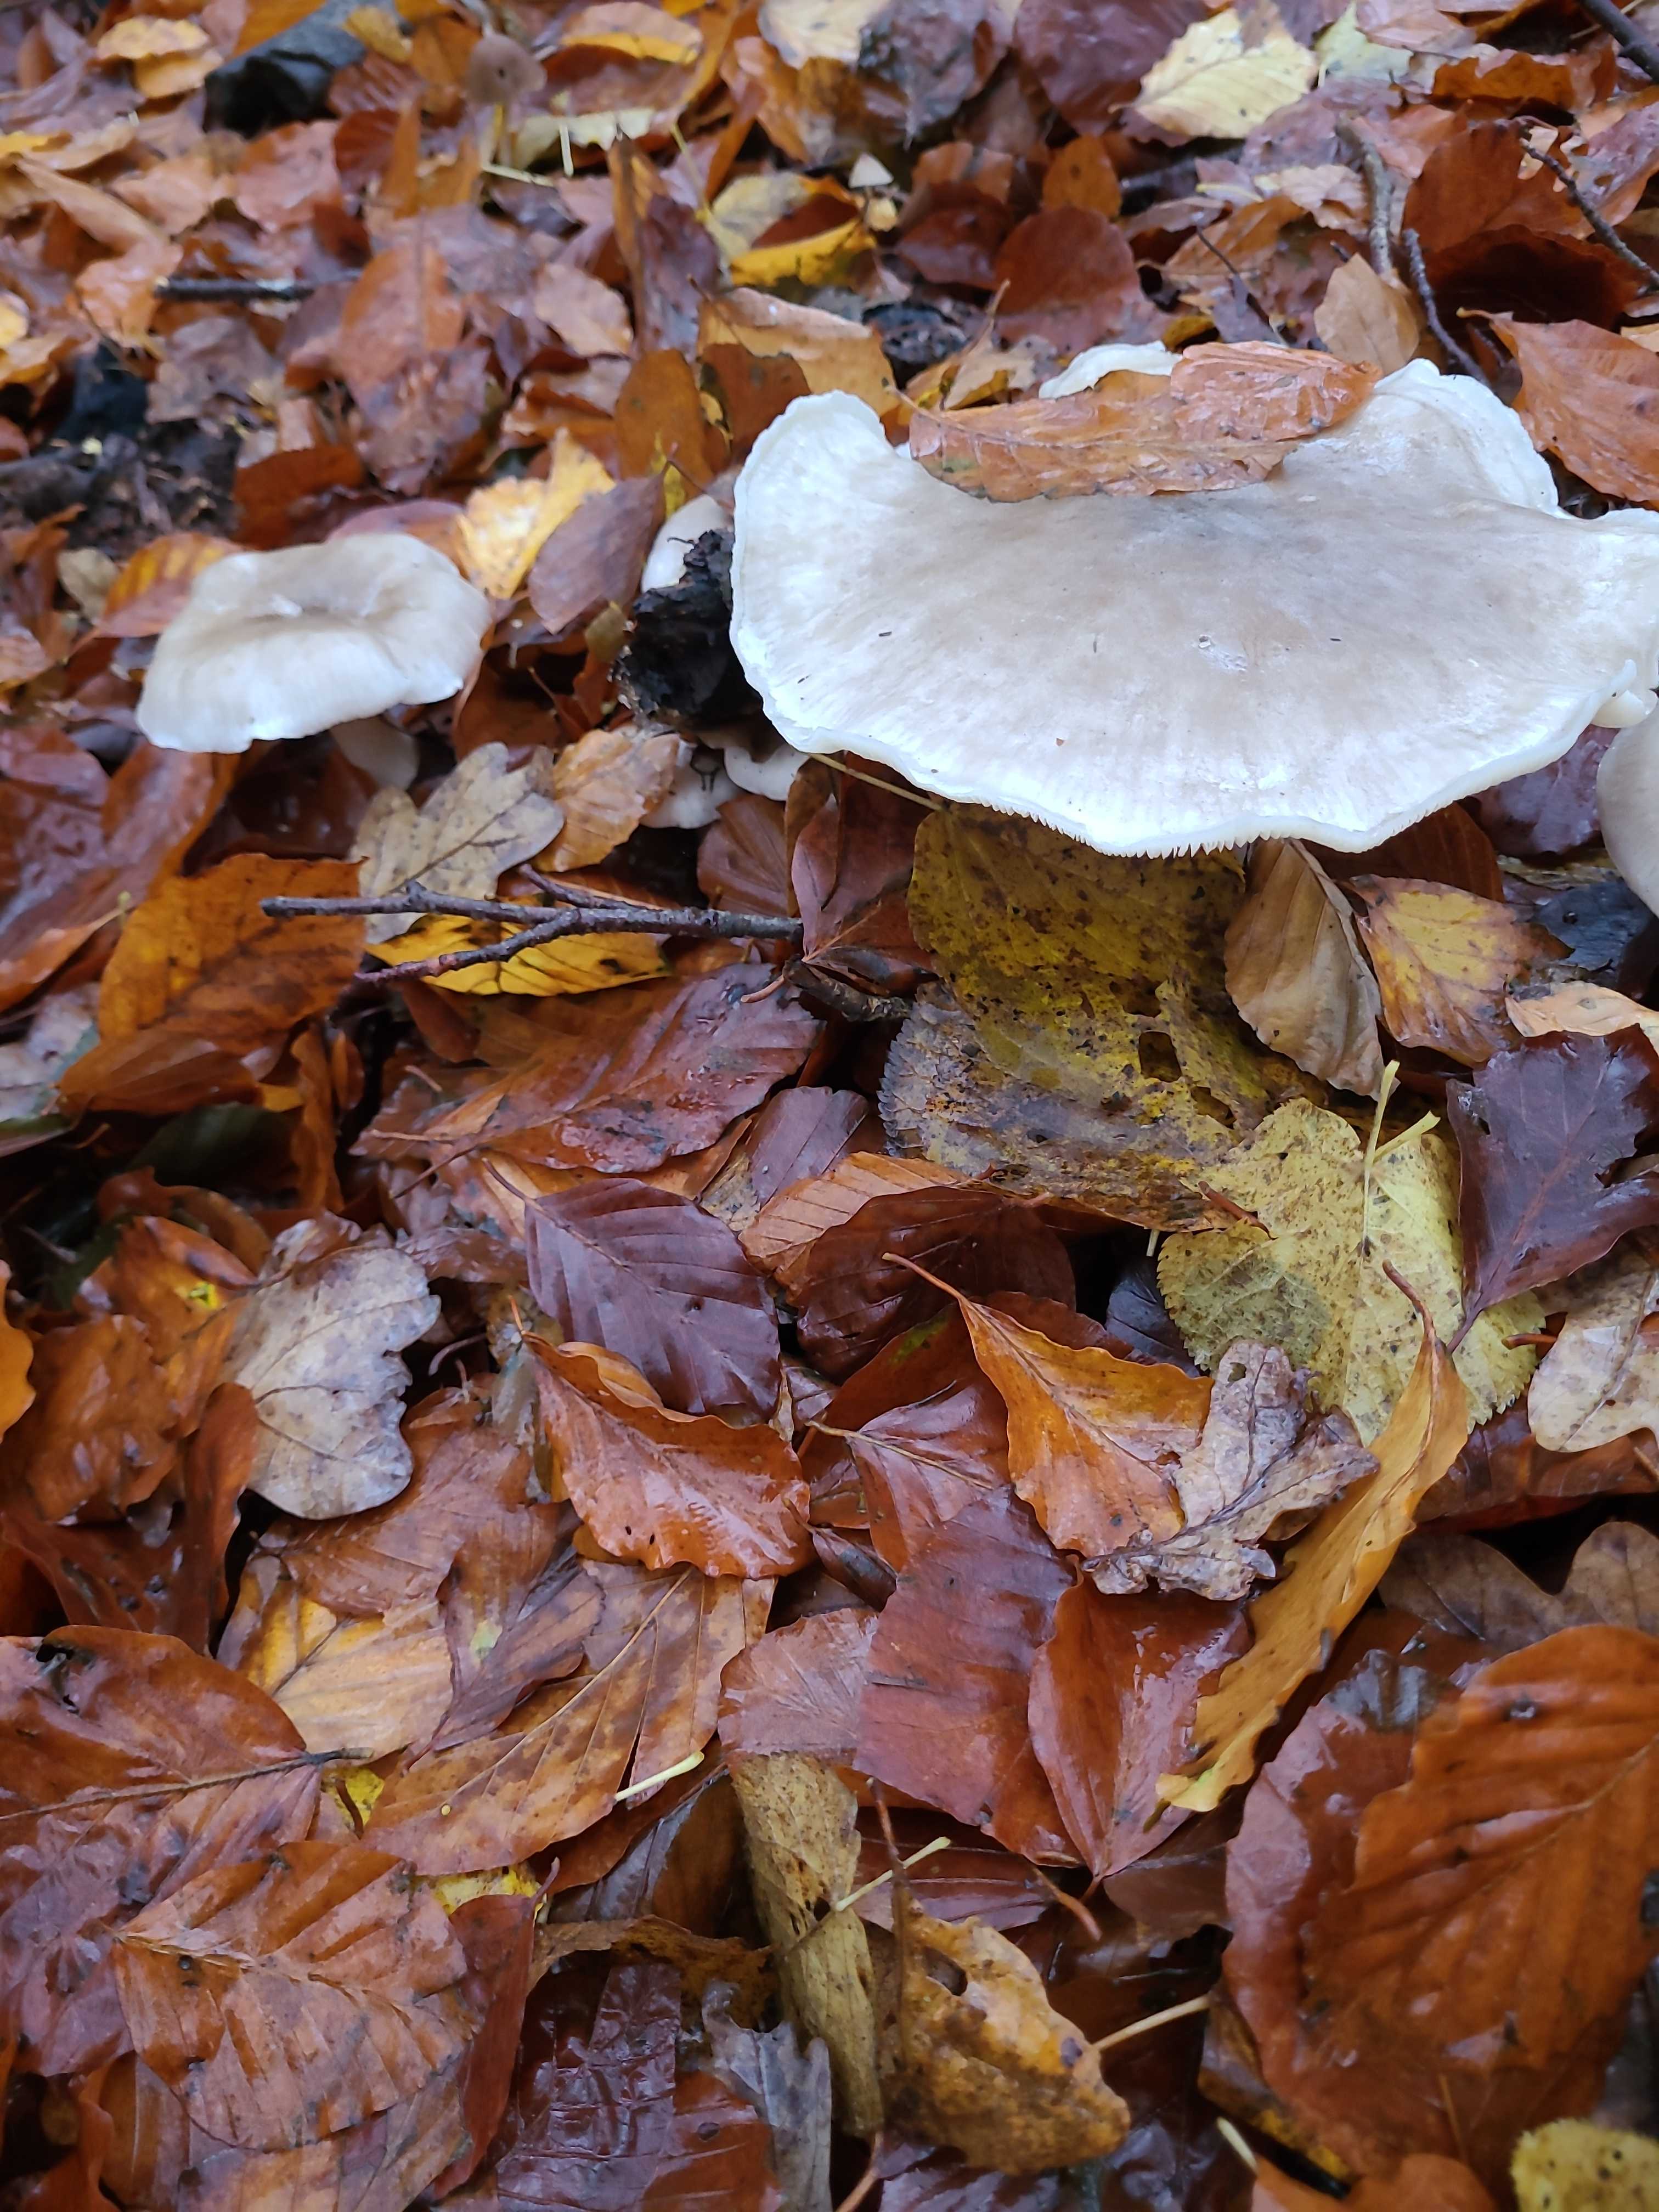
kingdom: Fungi
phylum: Basidiomycota
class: Agaricomycetes
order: Agaricales
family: Tricholomataceae
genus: Clitocybe
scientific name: Clitocybe nebularis
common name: tåge-tragthat
